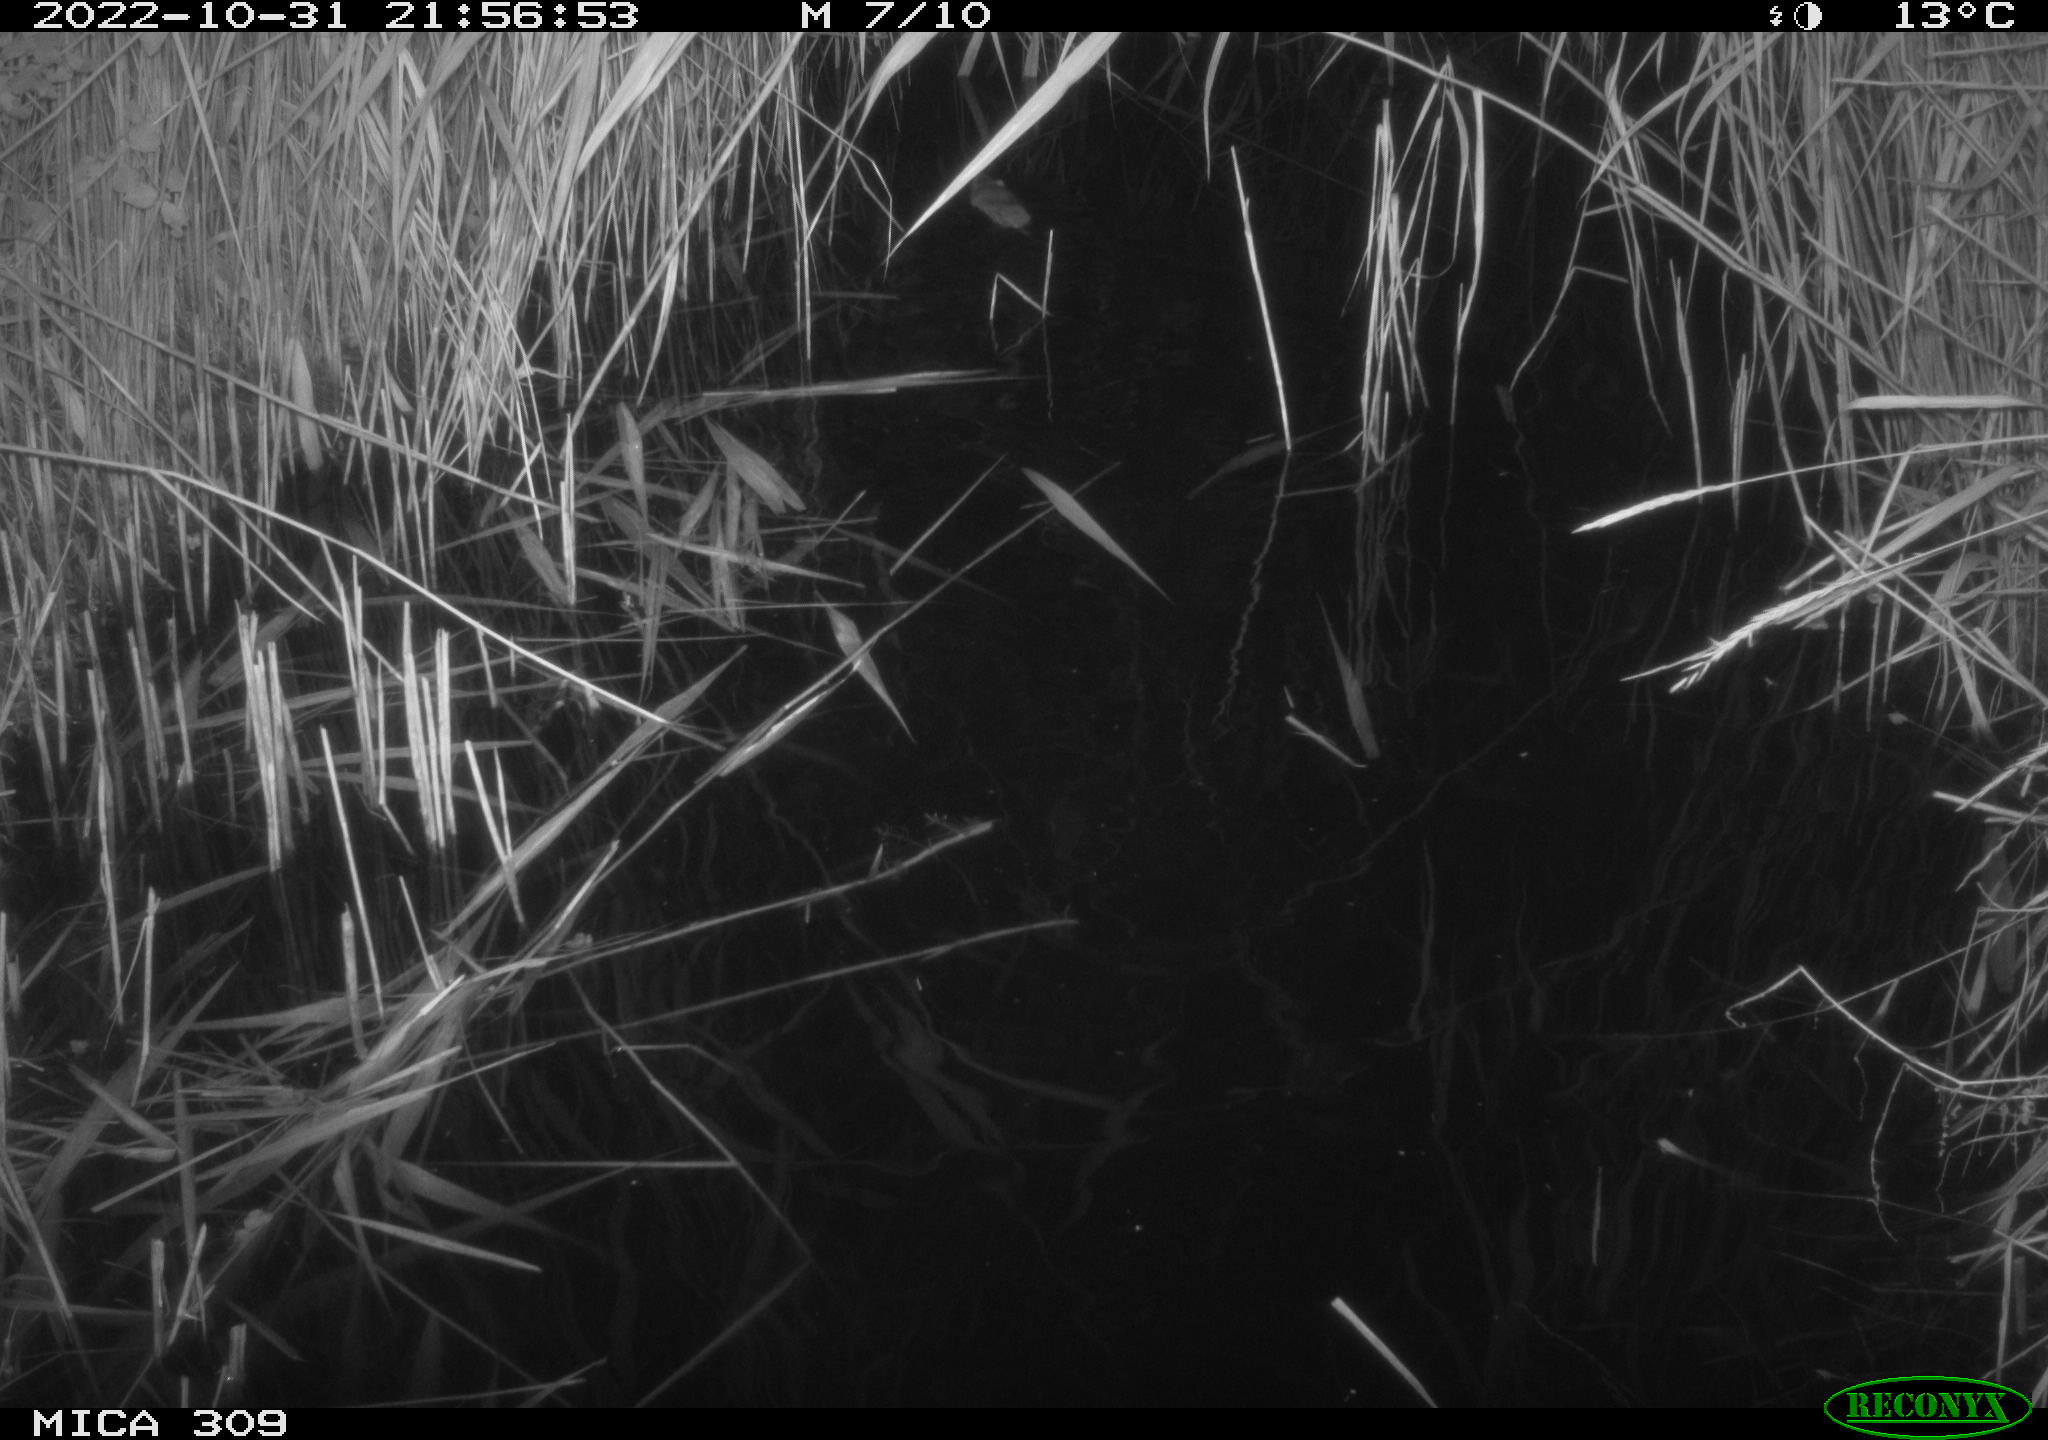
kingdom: Animalia
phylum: Chordata
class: Mammalia
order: Rodentia
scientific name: Rodentia
